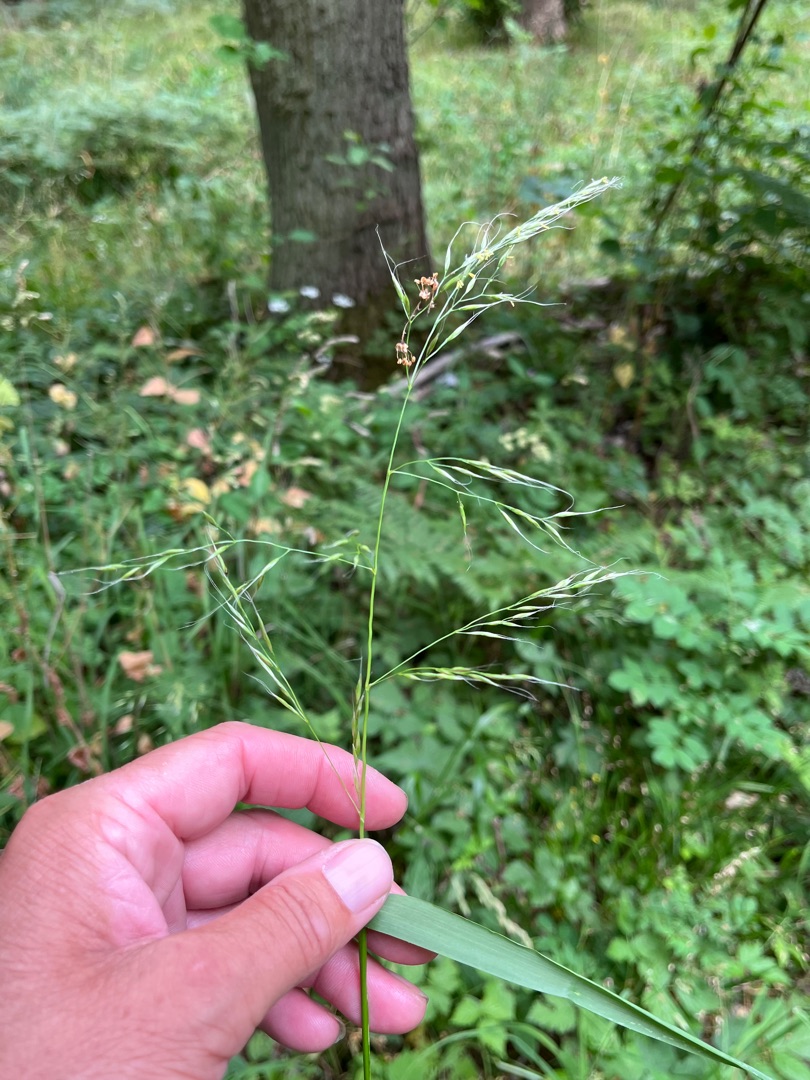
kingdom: Plantae
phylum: Tracheophyta
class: Liliopsida
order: Poales
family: Poaceae
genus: Lolium
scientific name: Lolium giganteum
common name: Kæmpe-svingel
